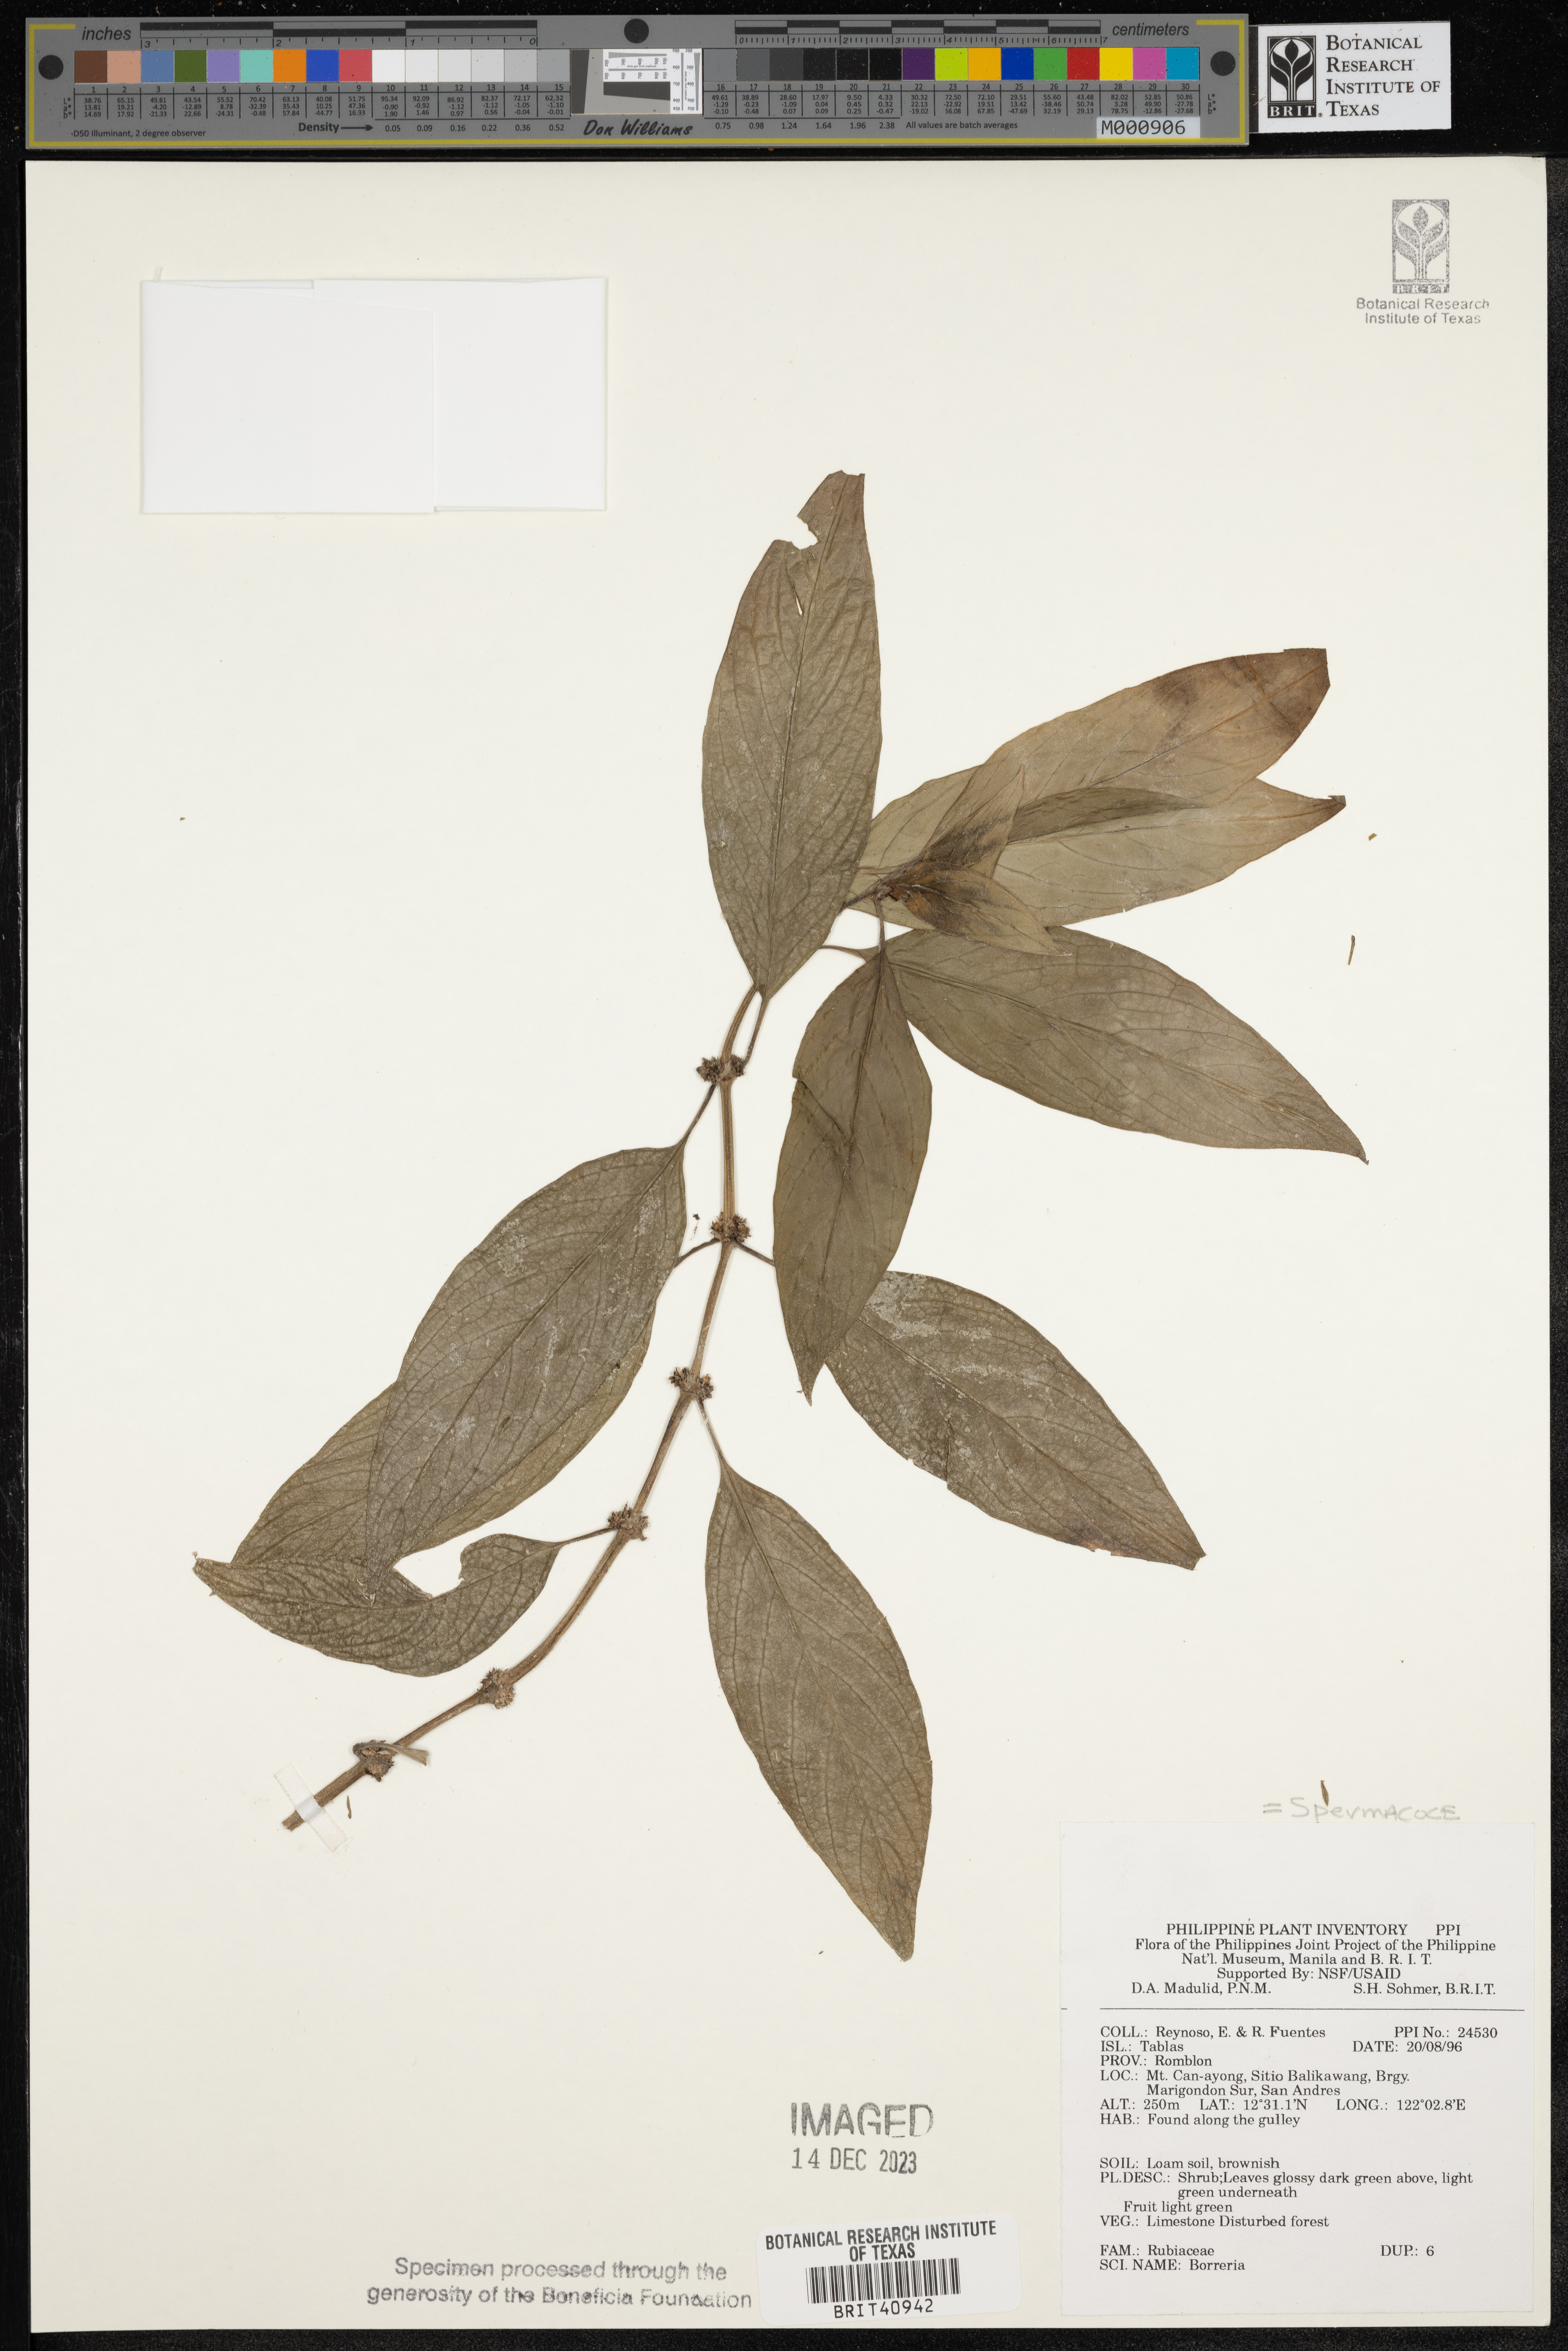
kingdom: Plantae
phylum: Tracheophyta
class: Magnoliopsida
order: Gentianales
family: Rubiaceae
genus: Spermacoce
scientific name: Spermacoce
